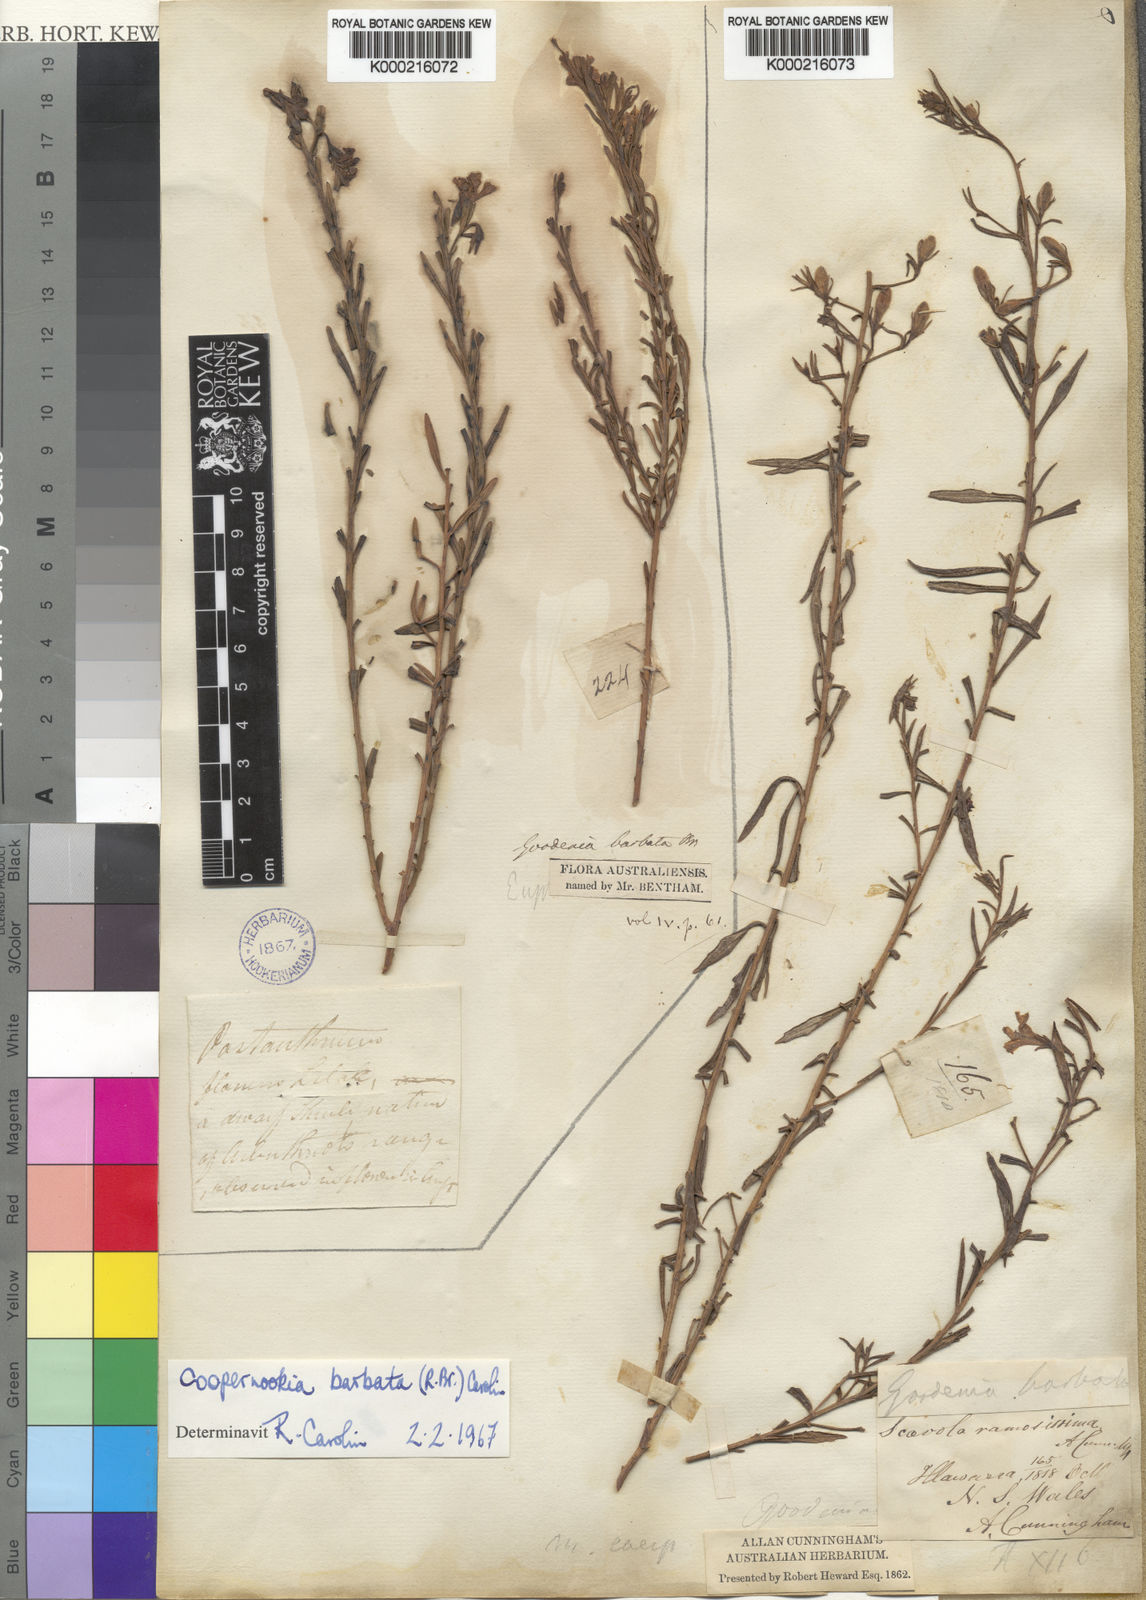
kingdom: Plantae
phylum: Tracheophyta
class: Magnoliopsida
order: Asterales
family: Goodeniaceae
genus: Goodenia
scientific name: Goodenia barbata
